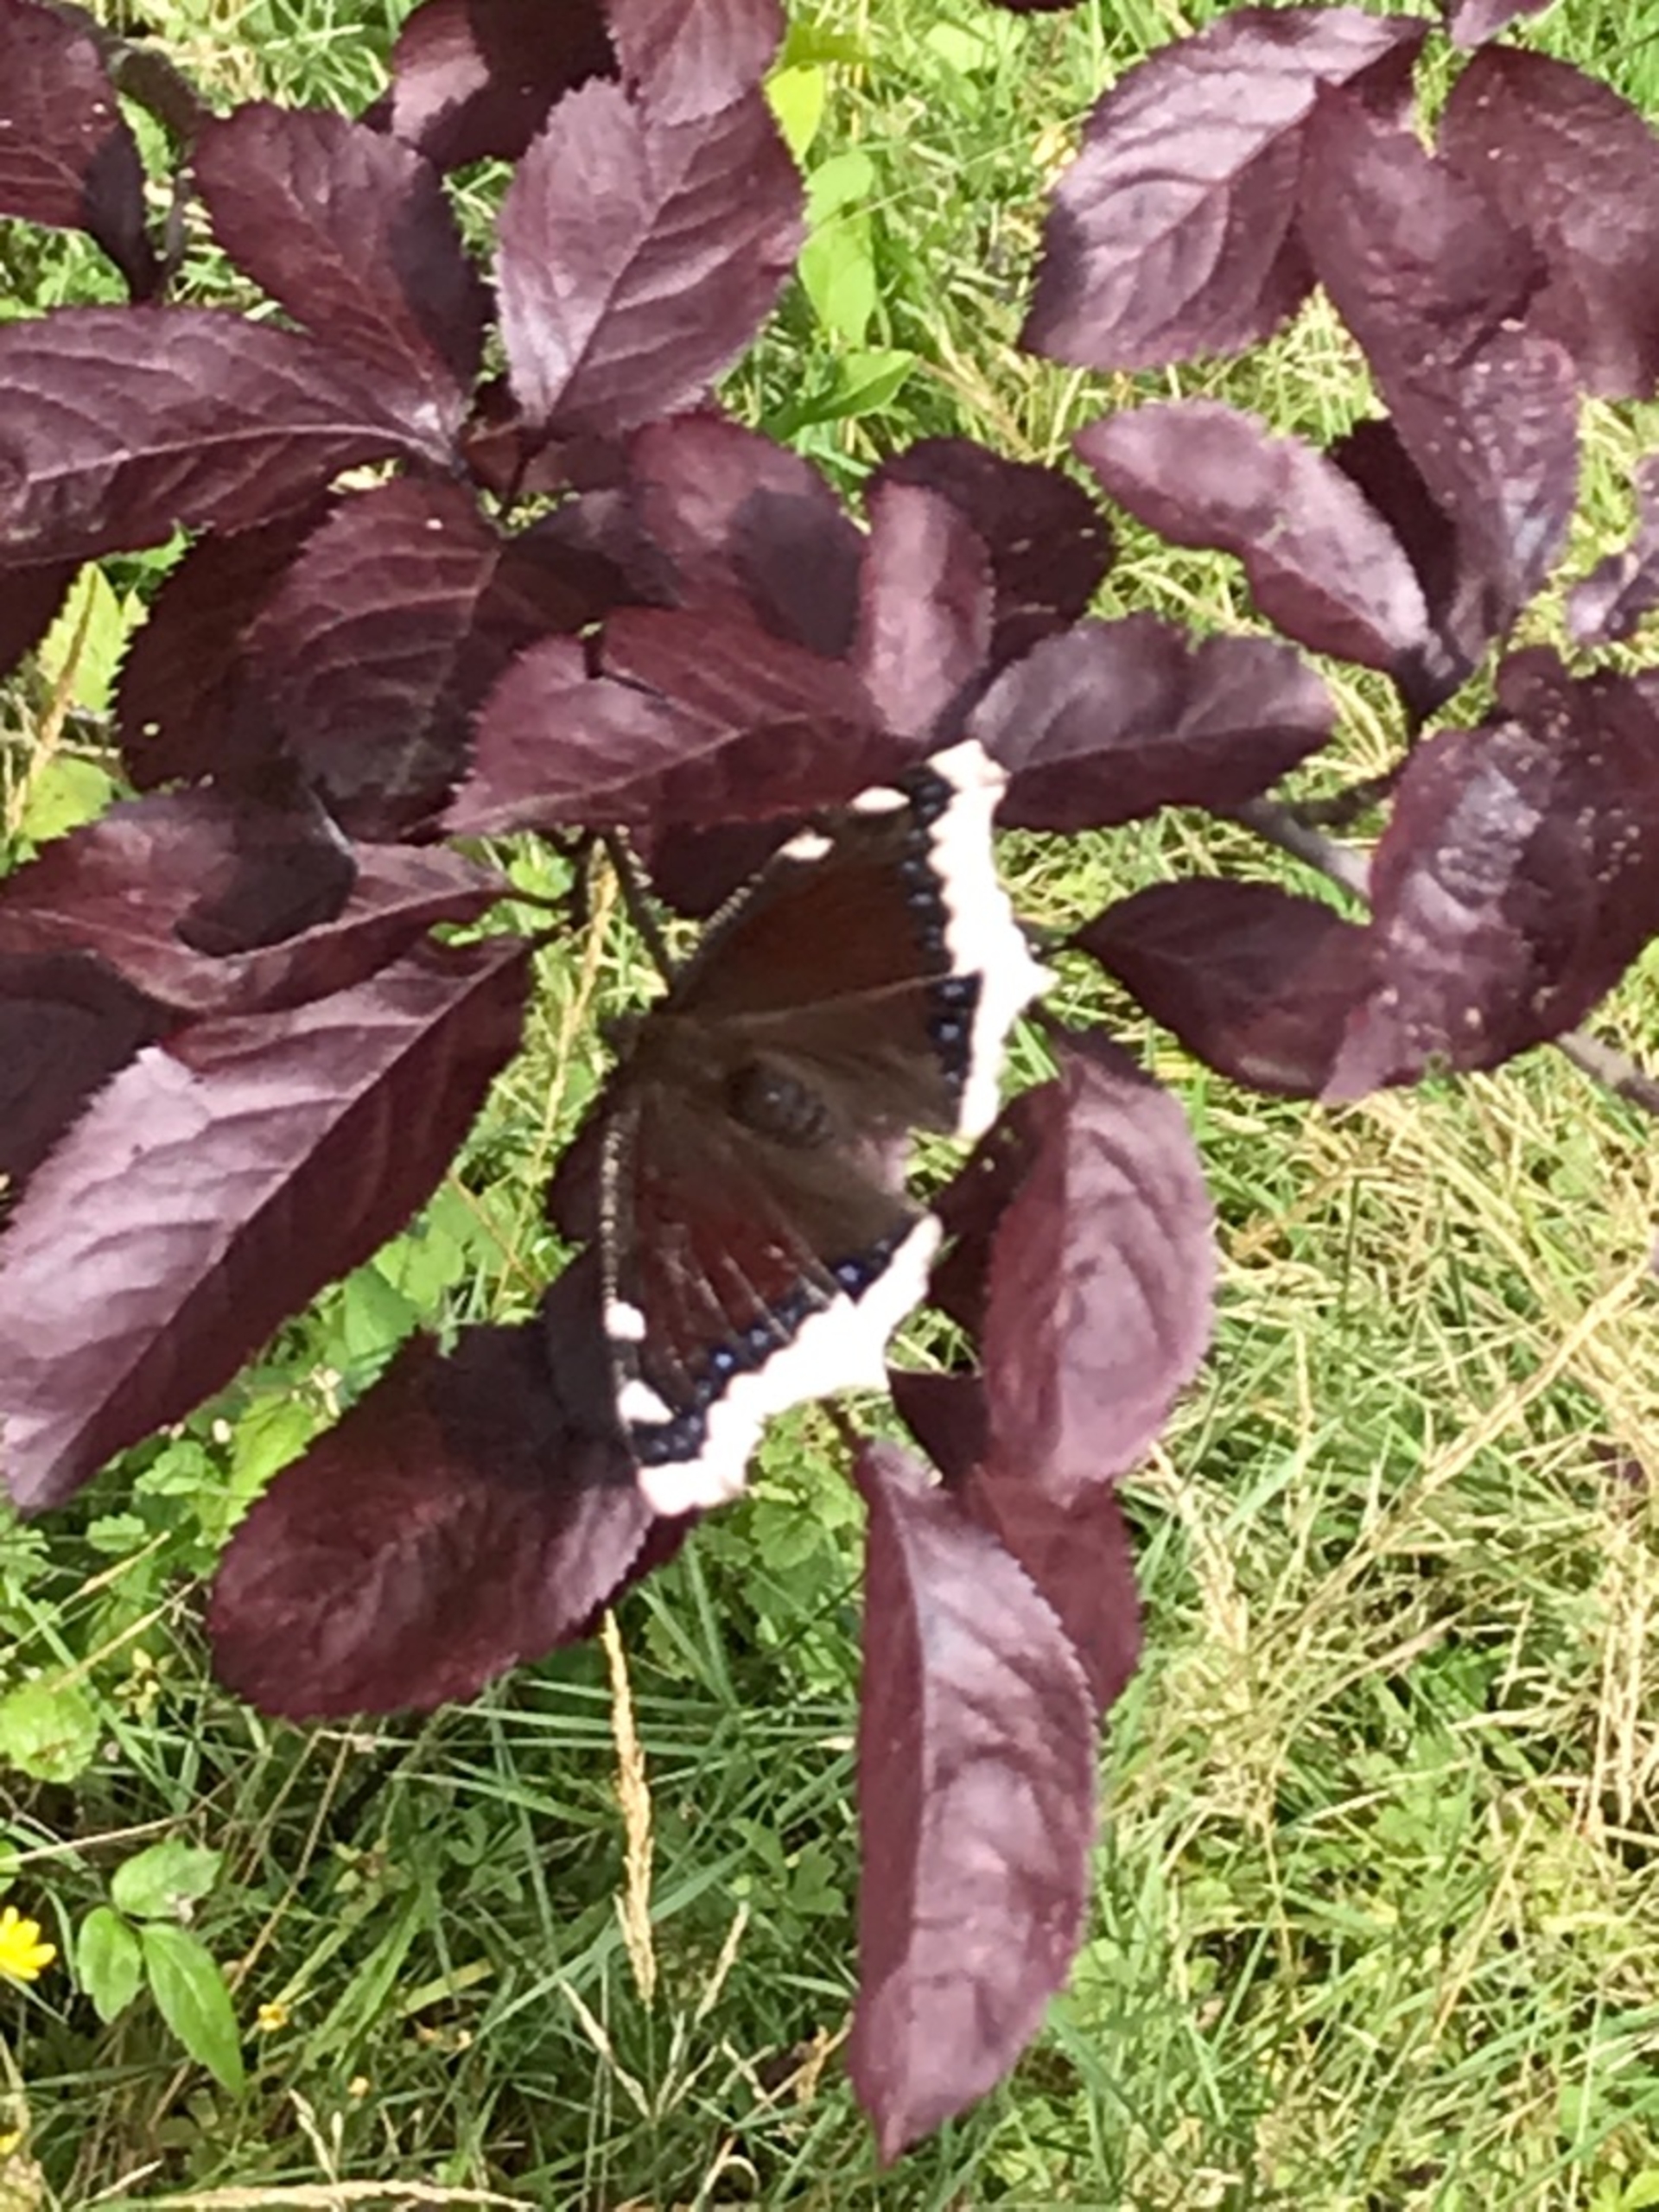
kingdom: Animalia
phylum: Arthropoda
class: Insecta
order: Lepidoptera
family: Nymphalidae
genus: Nymphalis
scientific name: Nymphalis antiopa
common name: Sørgekåbe
